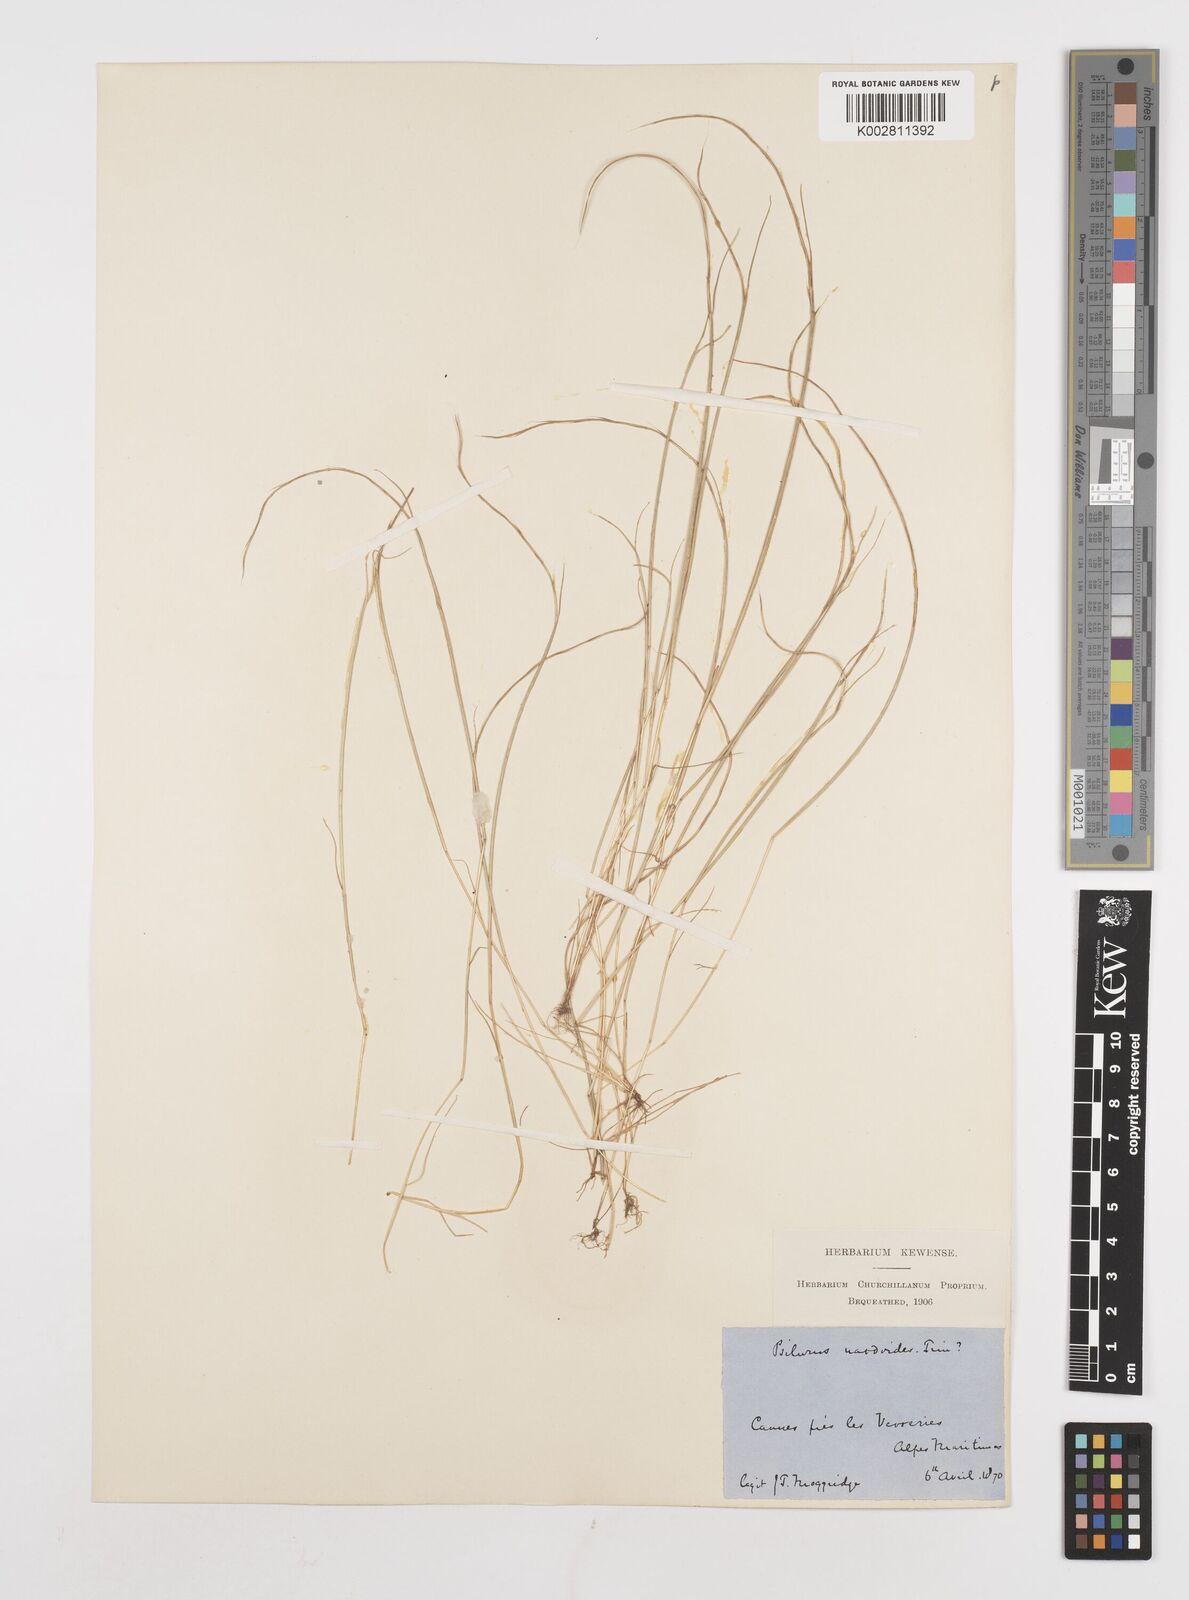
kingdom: Plantae
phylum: Tracheophyta
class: Liliopsida
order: Poales
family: Poaceae
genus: Festuca
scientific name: Festuca incurva
